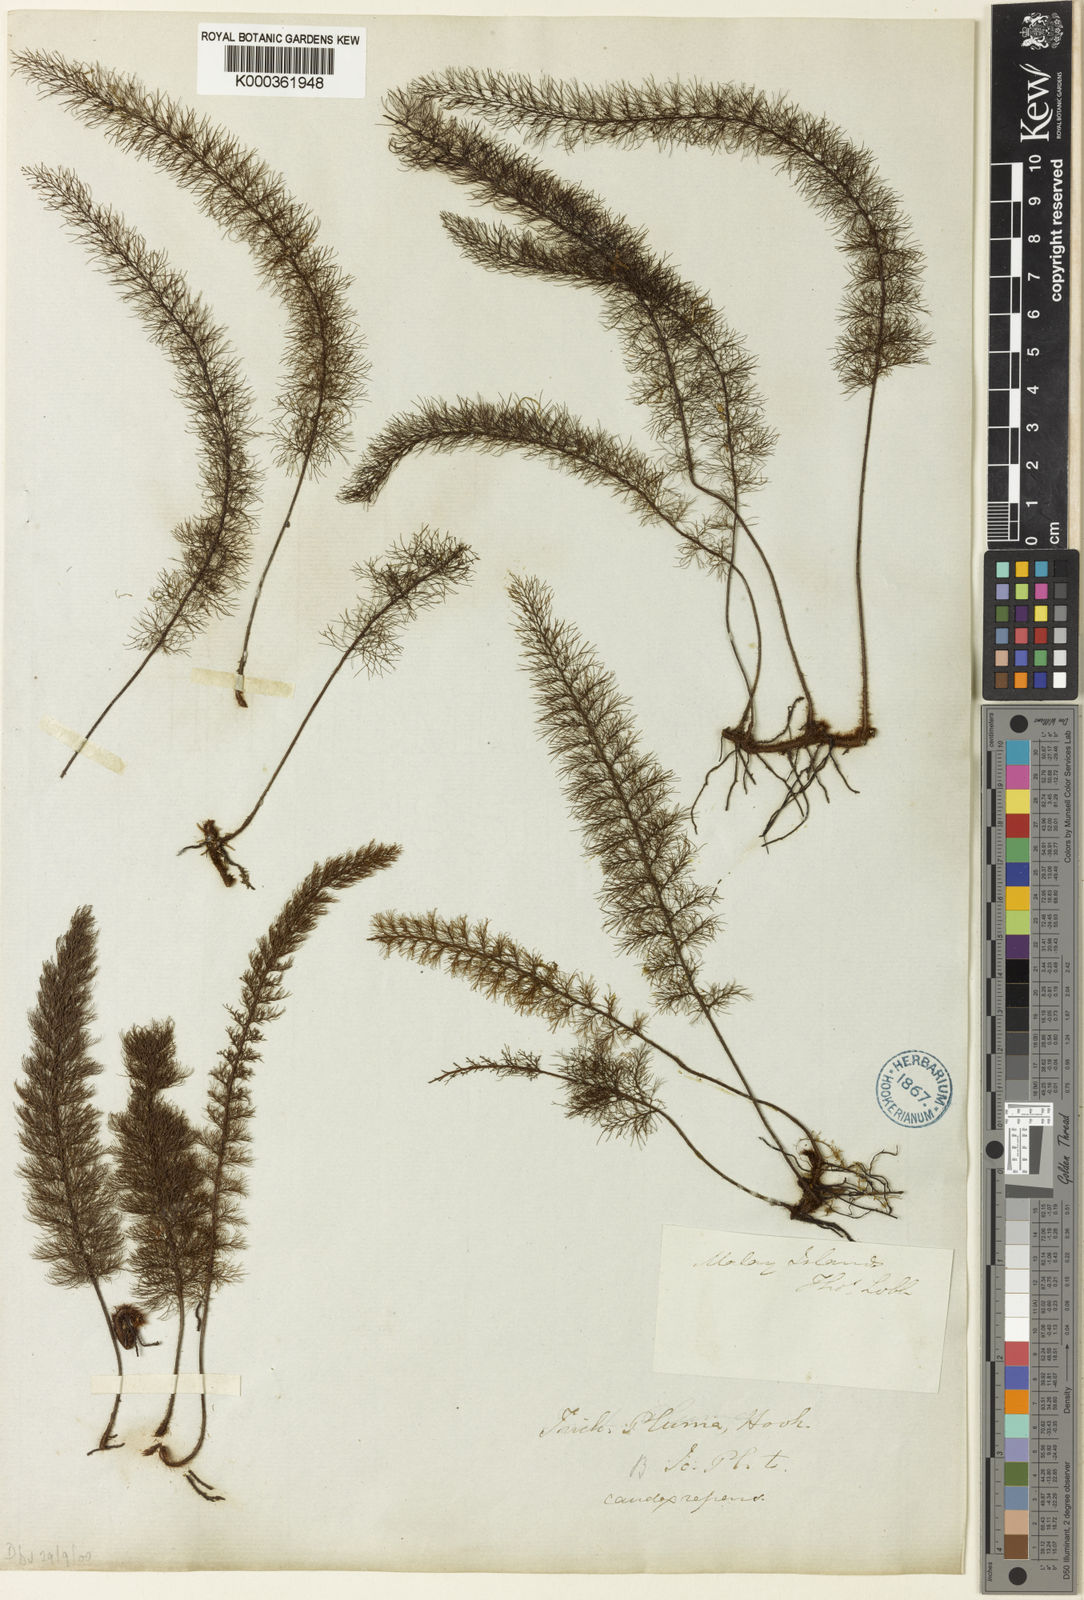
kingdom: Plantae
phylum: Tracheophyta
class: Polypodiopsida
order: Hymenophyllales
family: Hymenophyllaceae
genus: Trichomanes
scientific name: Trichomanes
